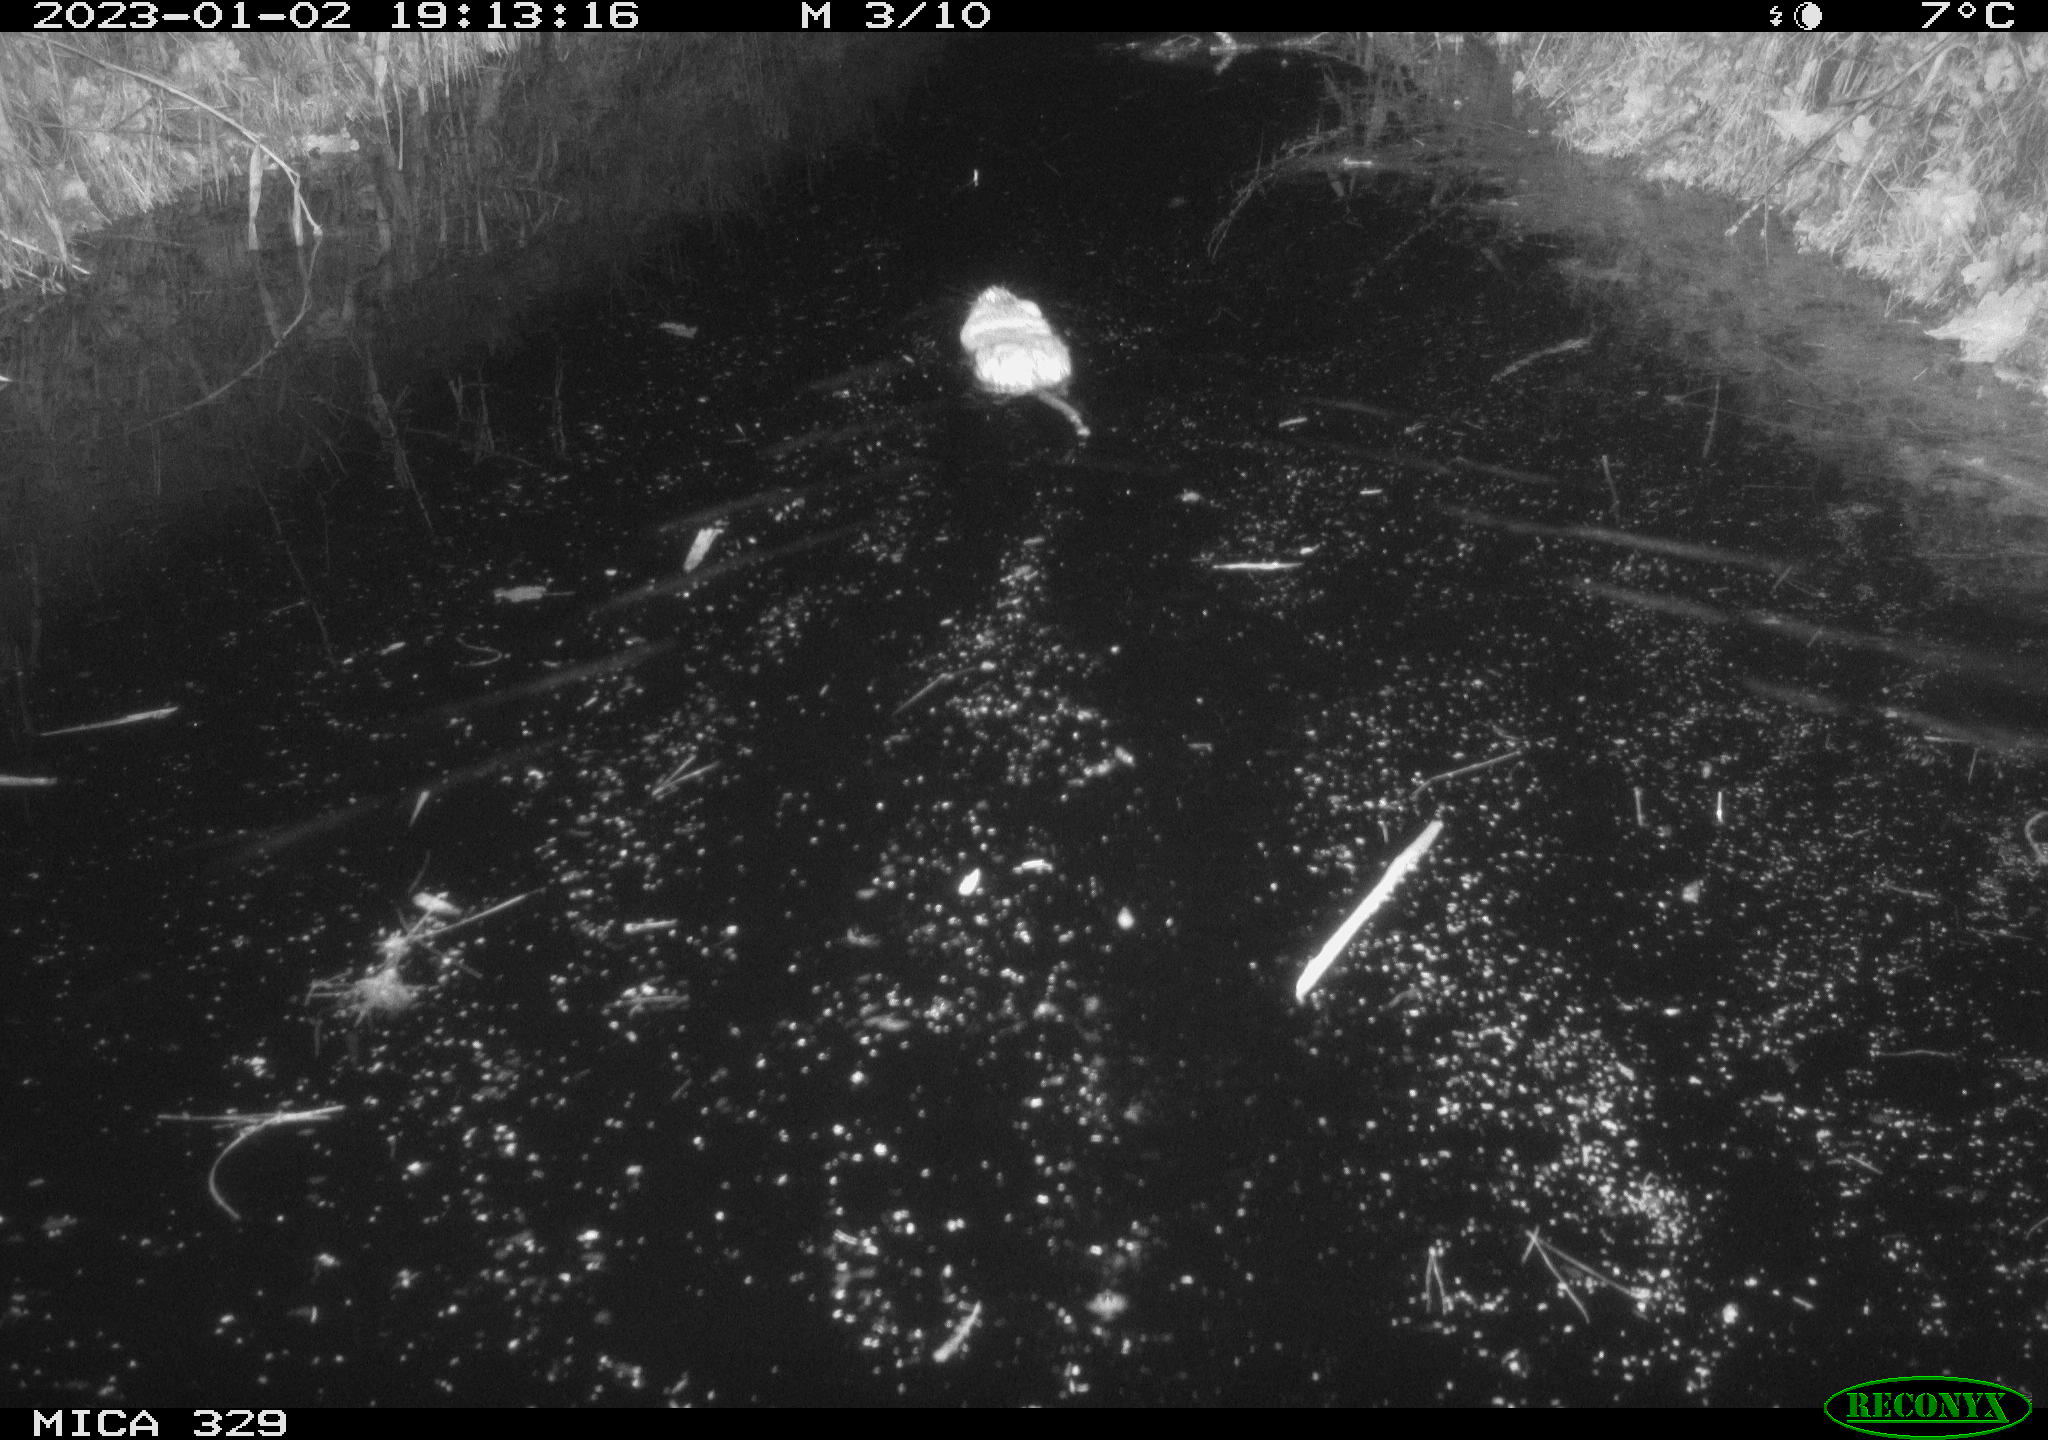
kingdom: Animalia
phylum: Chordata
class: Mammalia
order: Rodentia
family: Cricetidae
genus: Ondatra
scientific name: Ondatra zibethicus
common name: Muskrat
